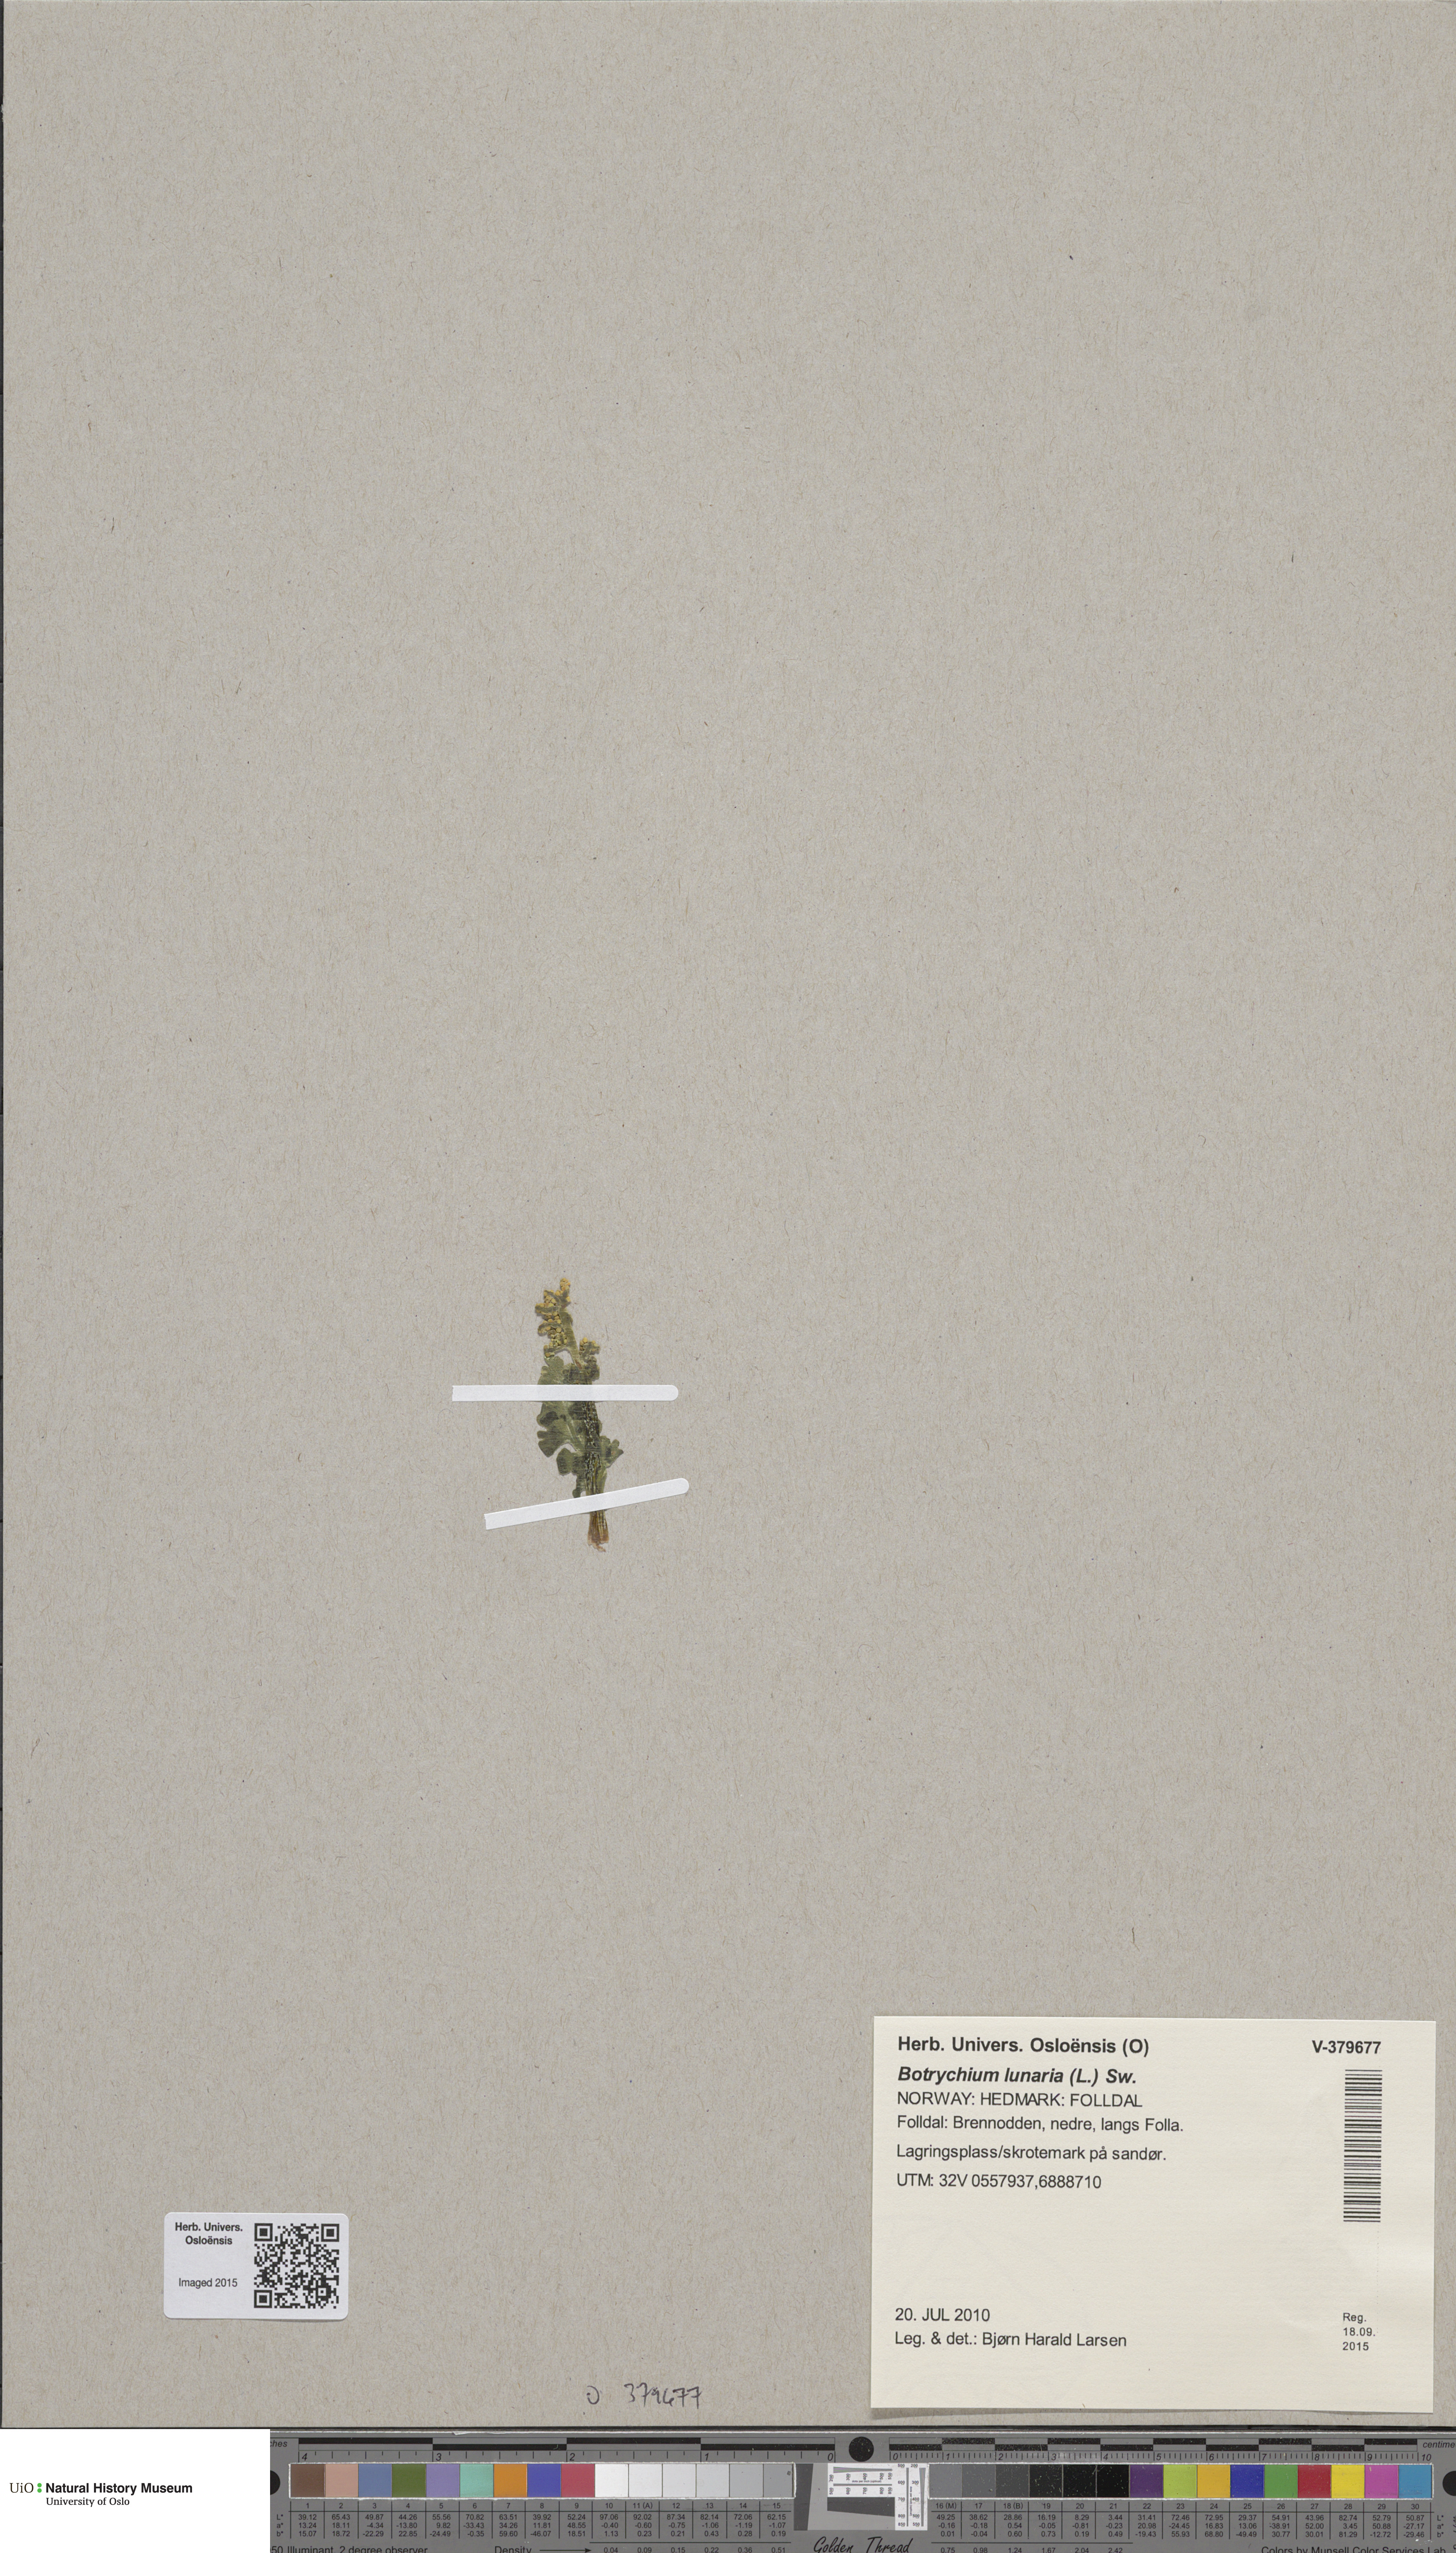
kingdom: Plantae
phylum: Tracheophyta
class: Polypodiopsida
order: Ophioglossales
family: Ophioglossaceae
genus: Botrychium
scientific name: Botrychium lunaria
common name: Moonwort
